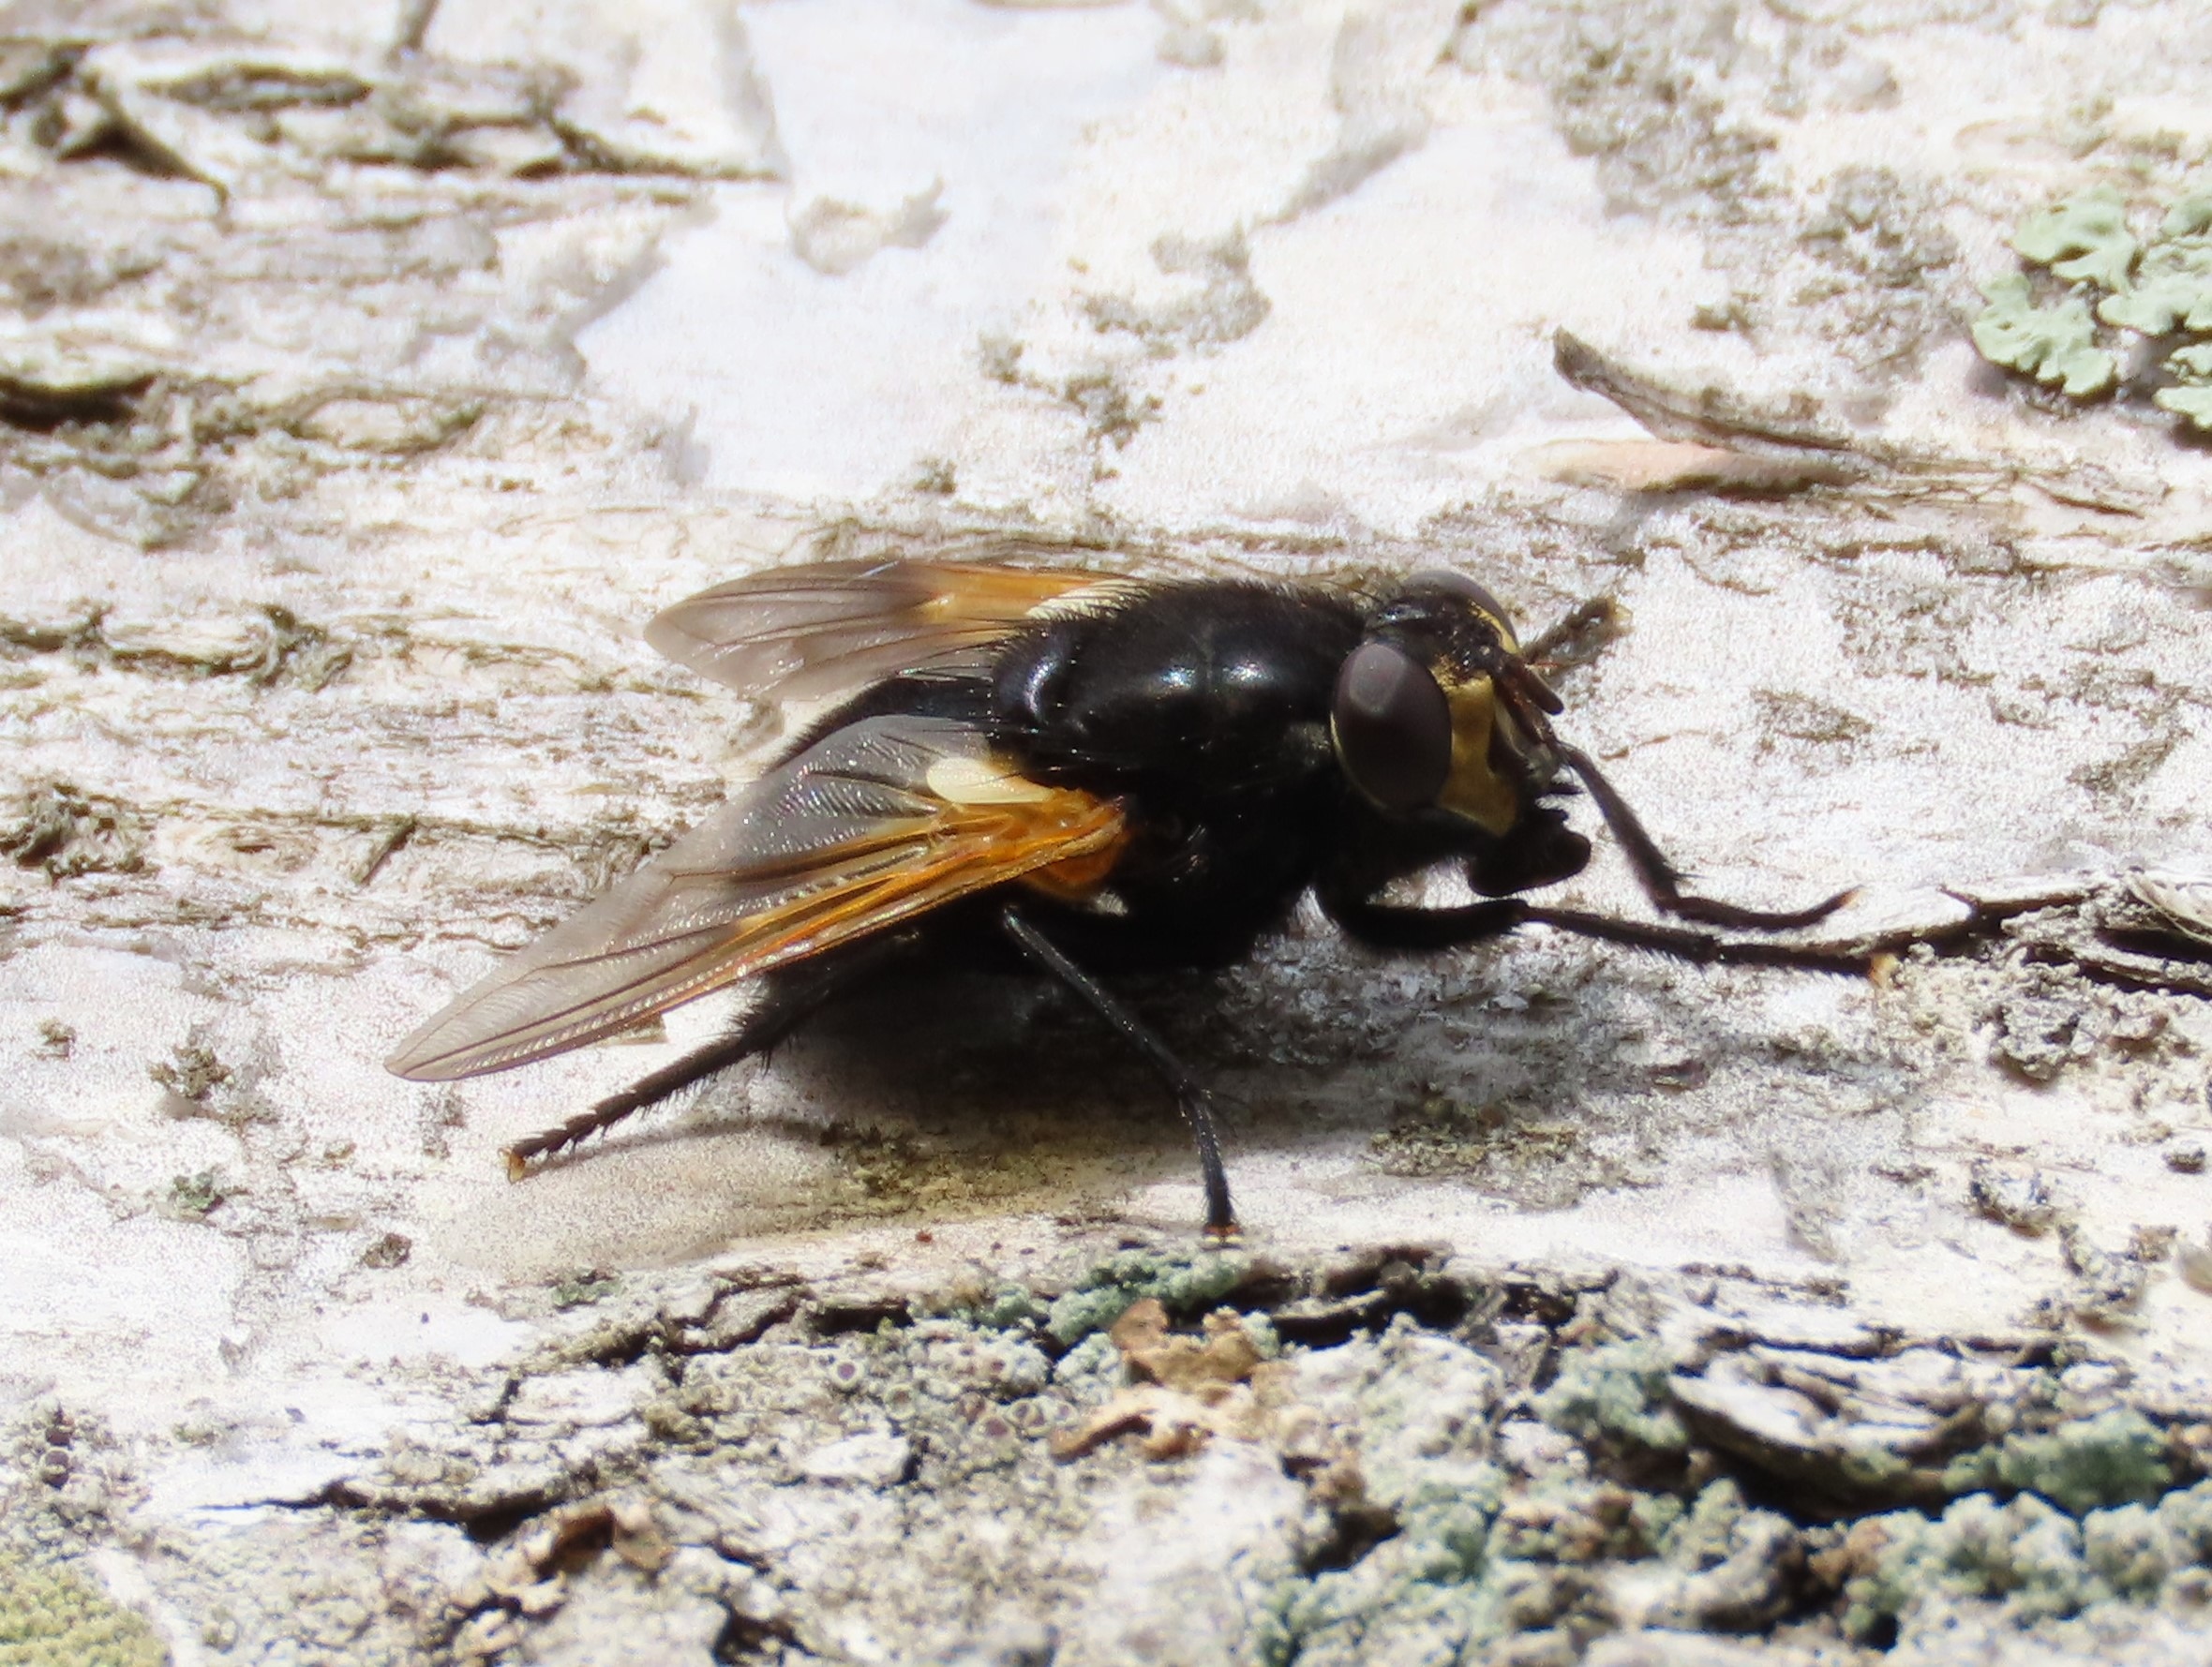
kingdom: Animalia
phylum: Arthropoda
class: Insecta
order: Diptera
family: Muscidae
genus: Mesembrina
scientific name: Mesembrina meridiana
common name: Gulvinget flue
